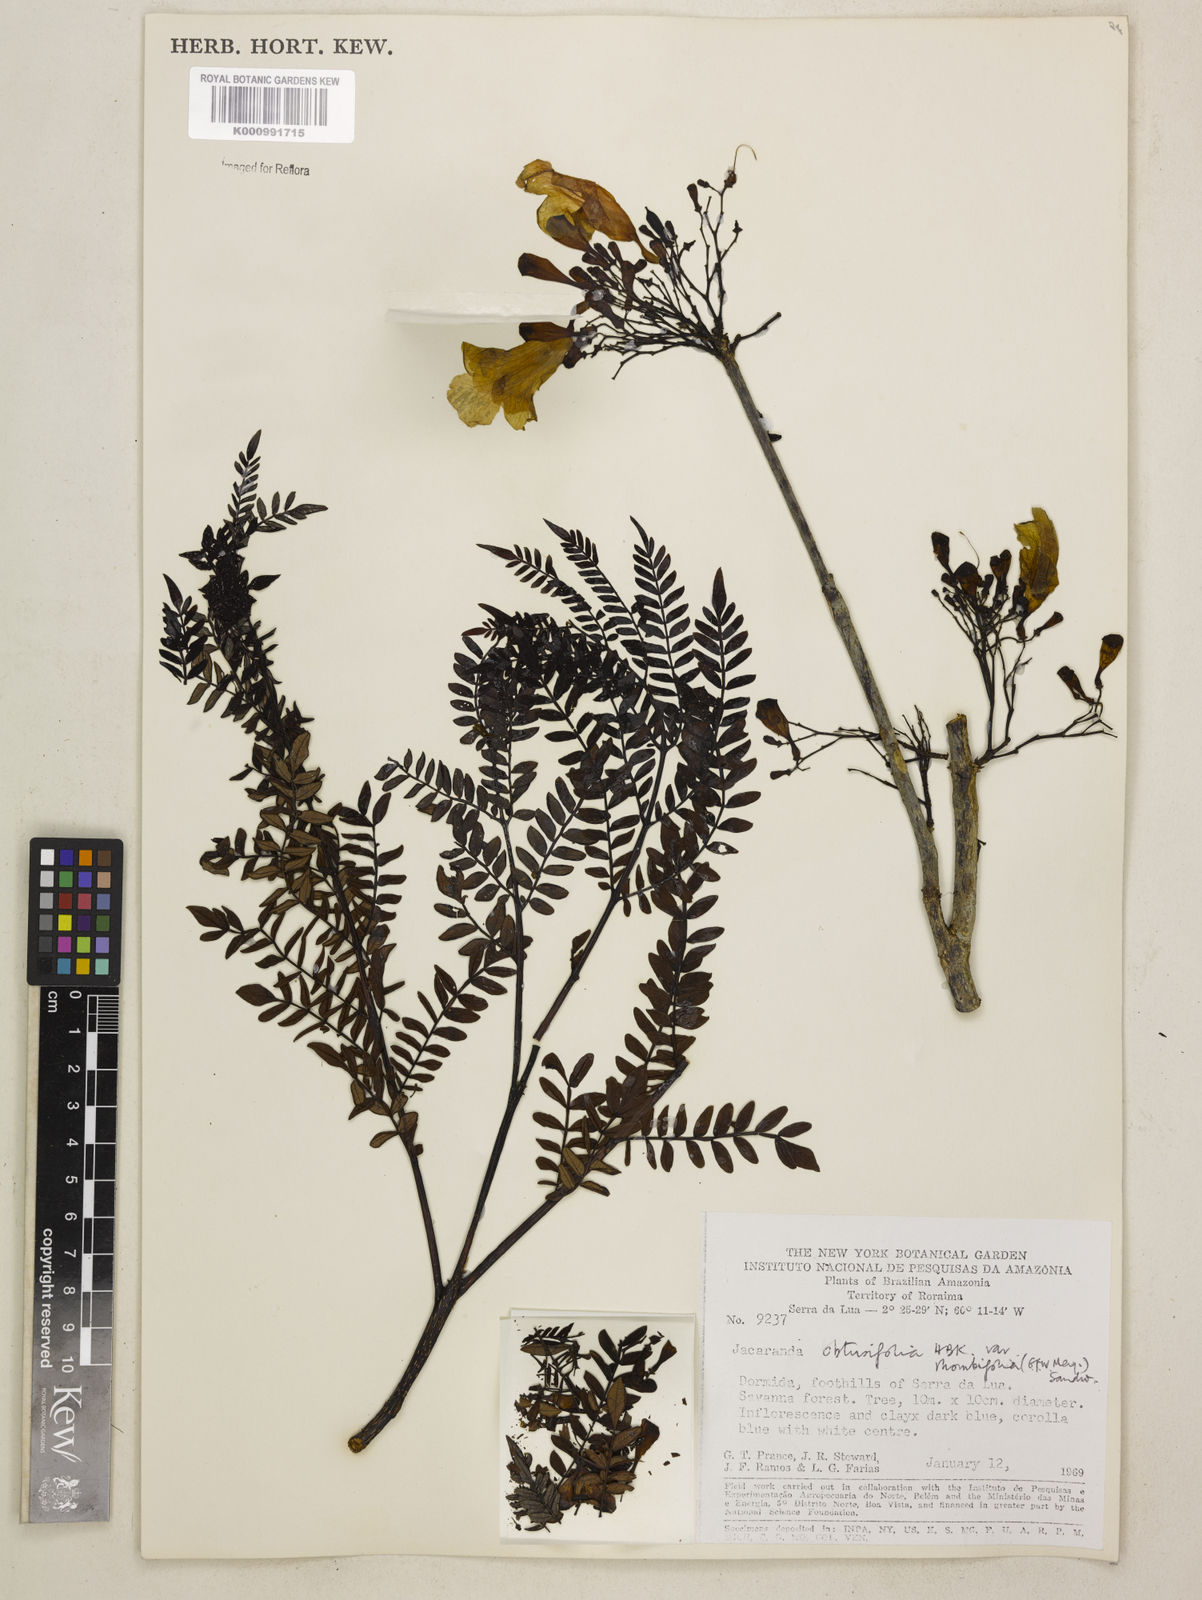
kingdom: Plantae
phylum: Tracheophyta
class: Magnoliopsida
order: Lamiales
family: Bignoniaceae
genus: Jacaranda
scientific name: Jacaranda obtusifolia
